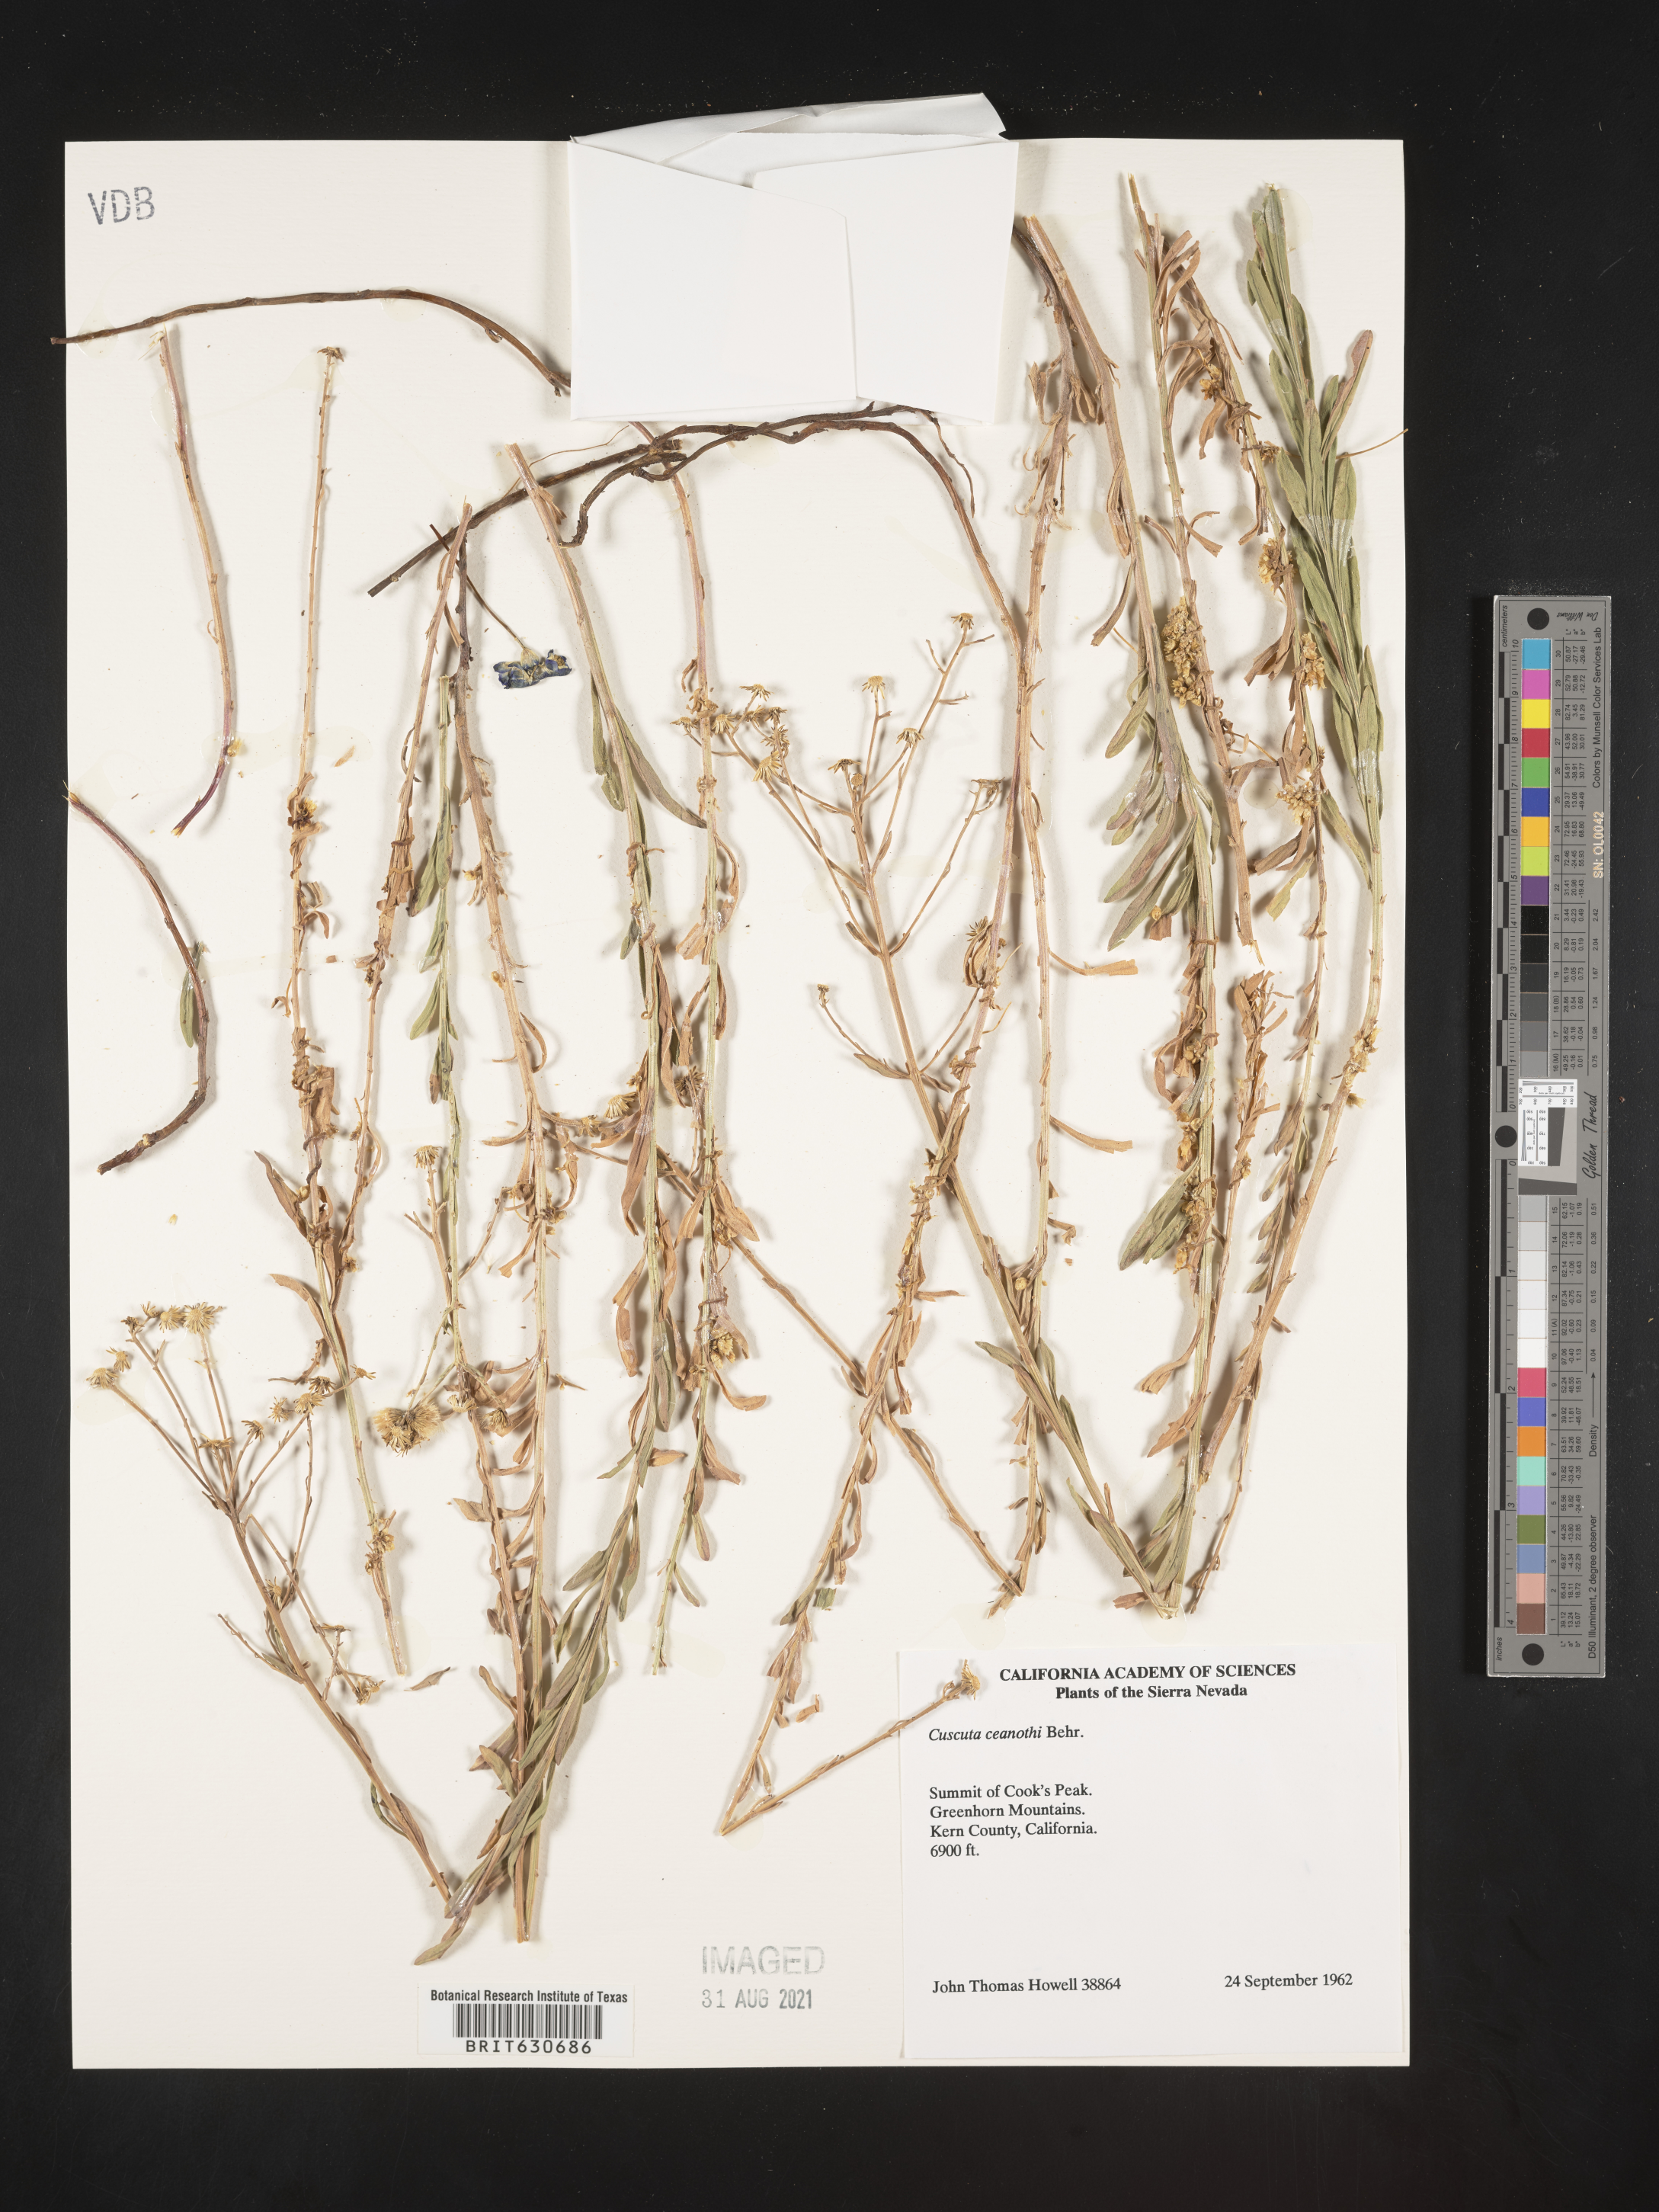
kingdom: Plantae
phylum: Tracheophyta
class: Magnoliopsida
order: Solanales
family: Convolvulaceae
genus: Cuscuta
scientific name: Cuscuta subinclusa
